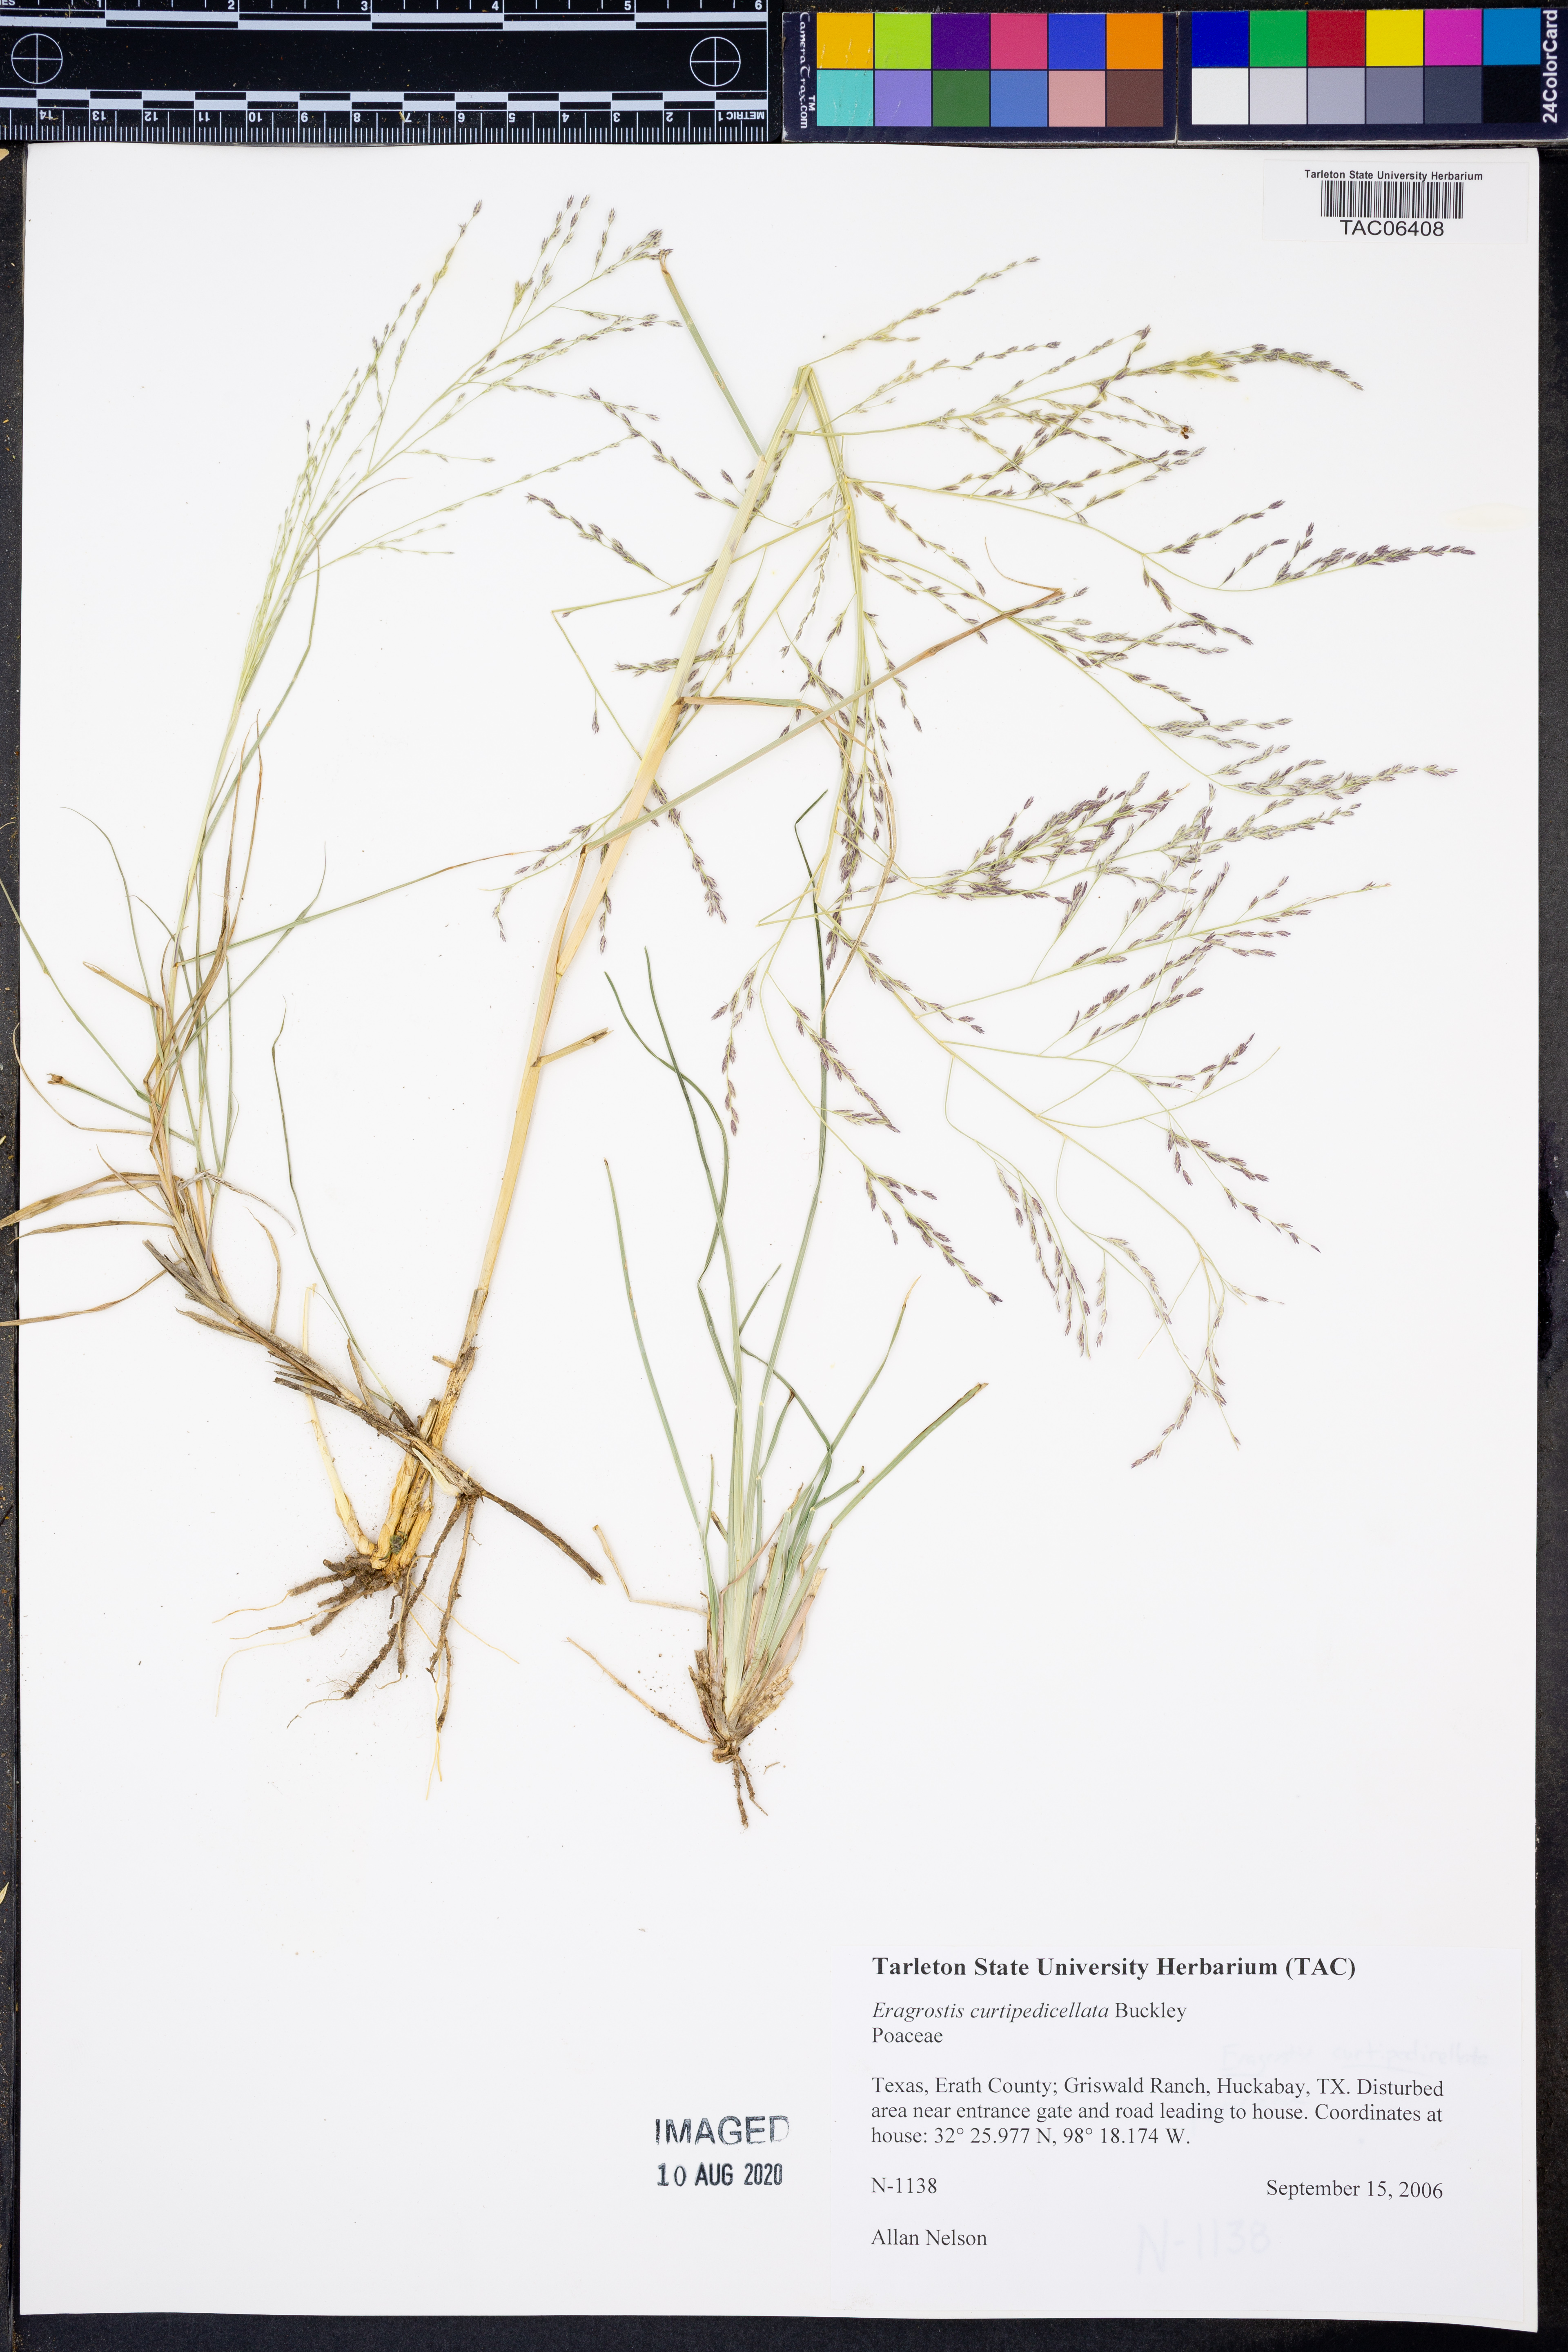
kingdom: Plantae
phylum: Tracheophyta
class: Liliopsida
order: Poales
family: Poaceae
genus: Eragrostis
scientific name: Eragrostis curtipedicellata
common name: Gummy love grass
